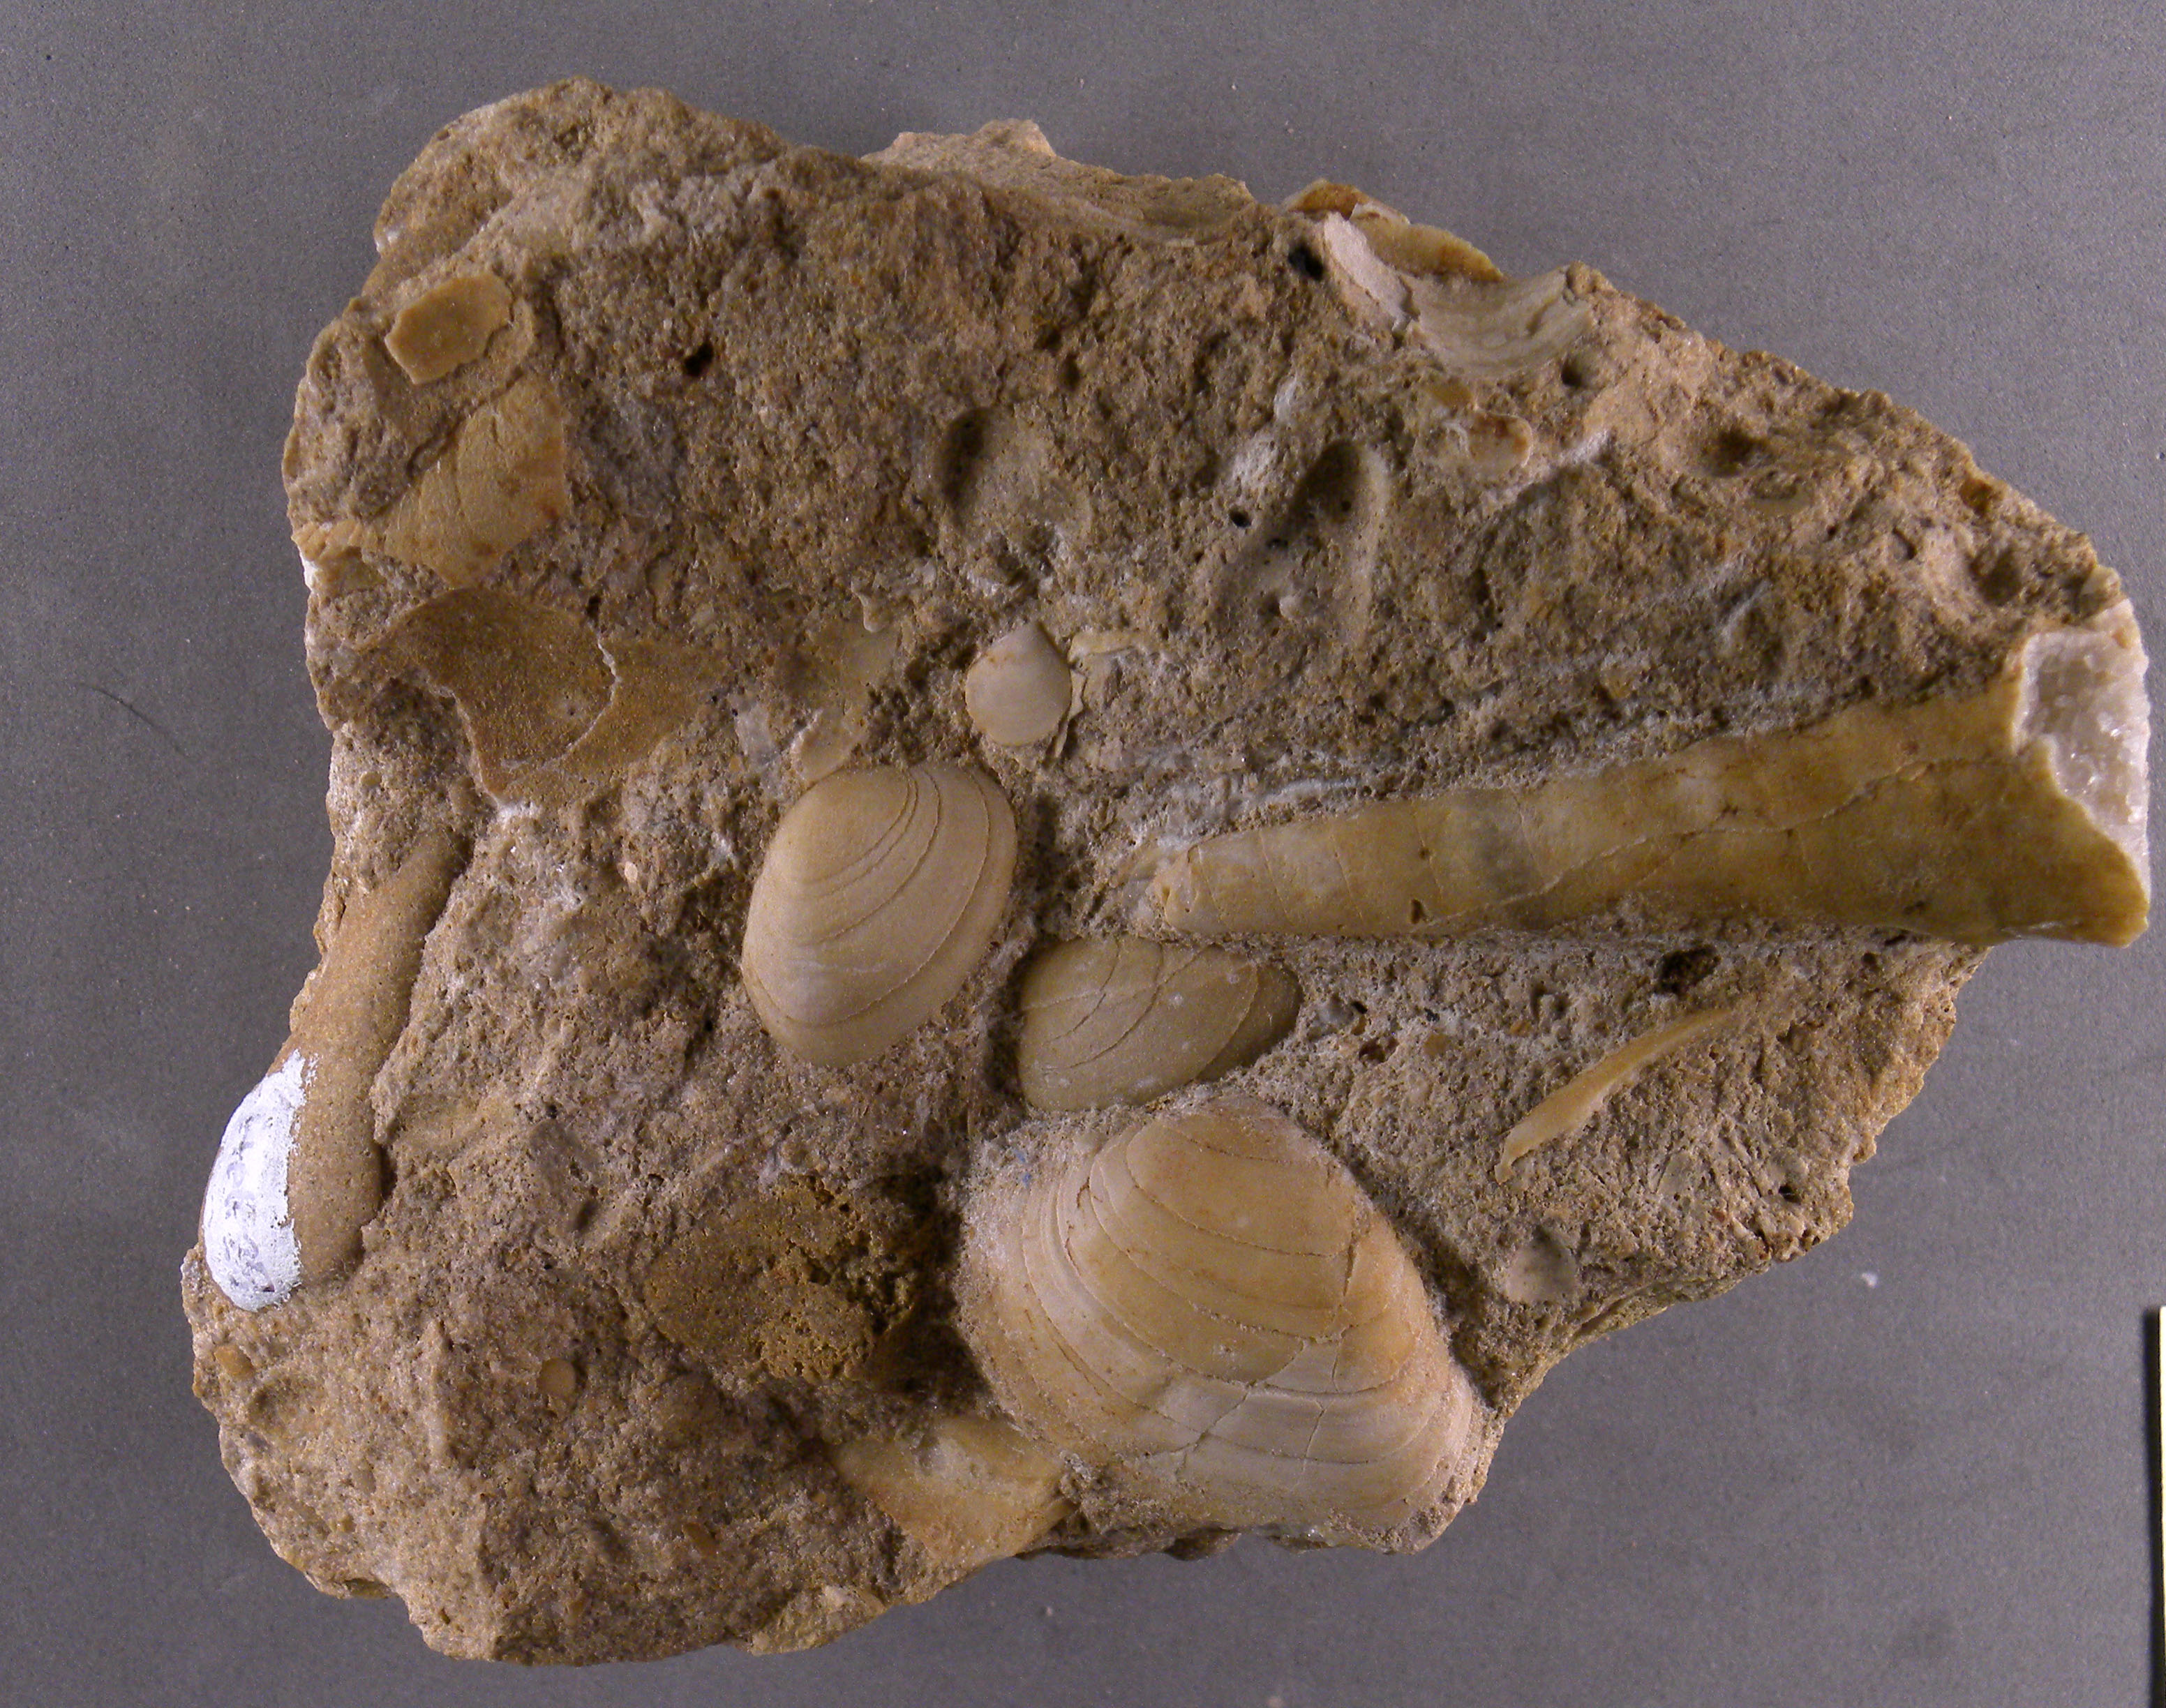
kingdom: Animalia
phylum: Mollusca
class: Gastropoda
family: Zygopleuridae
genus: Zygopleura
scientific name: Zygopleura Cerithium verrucosa
